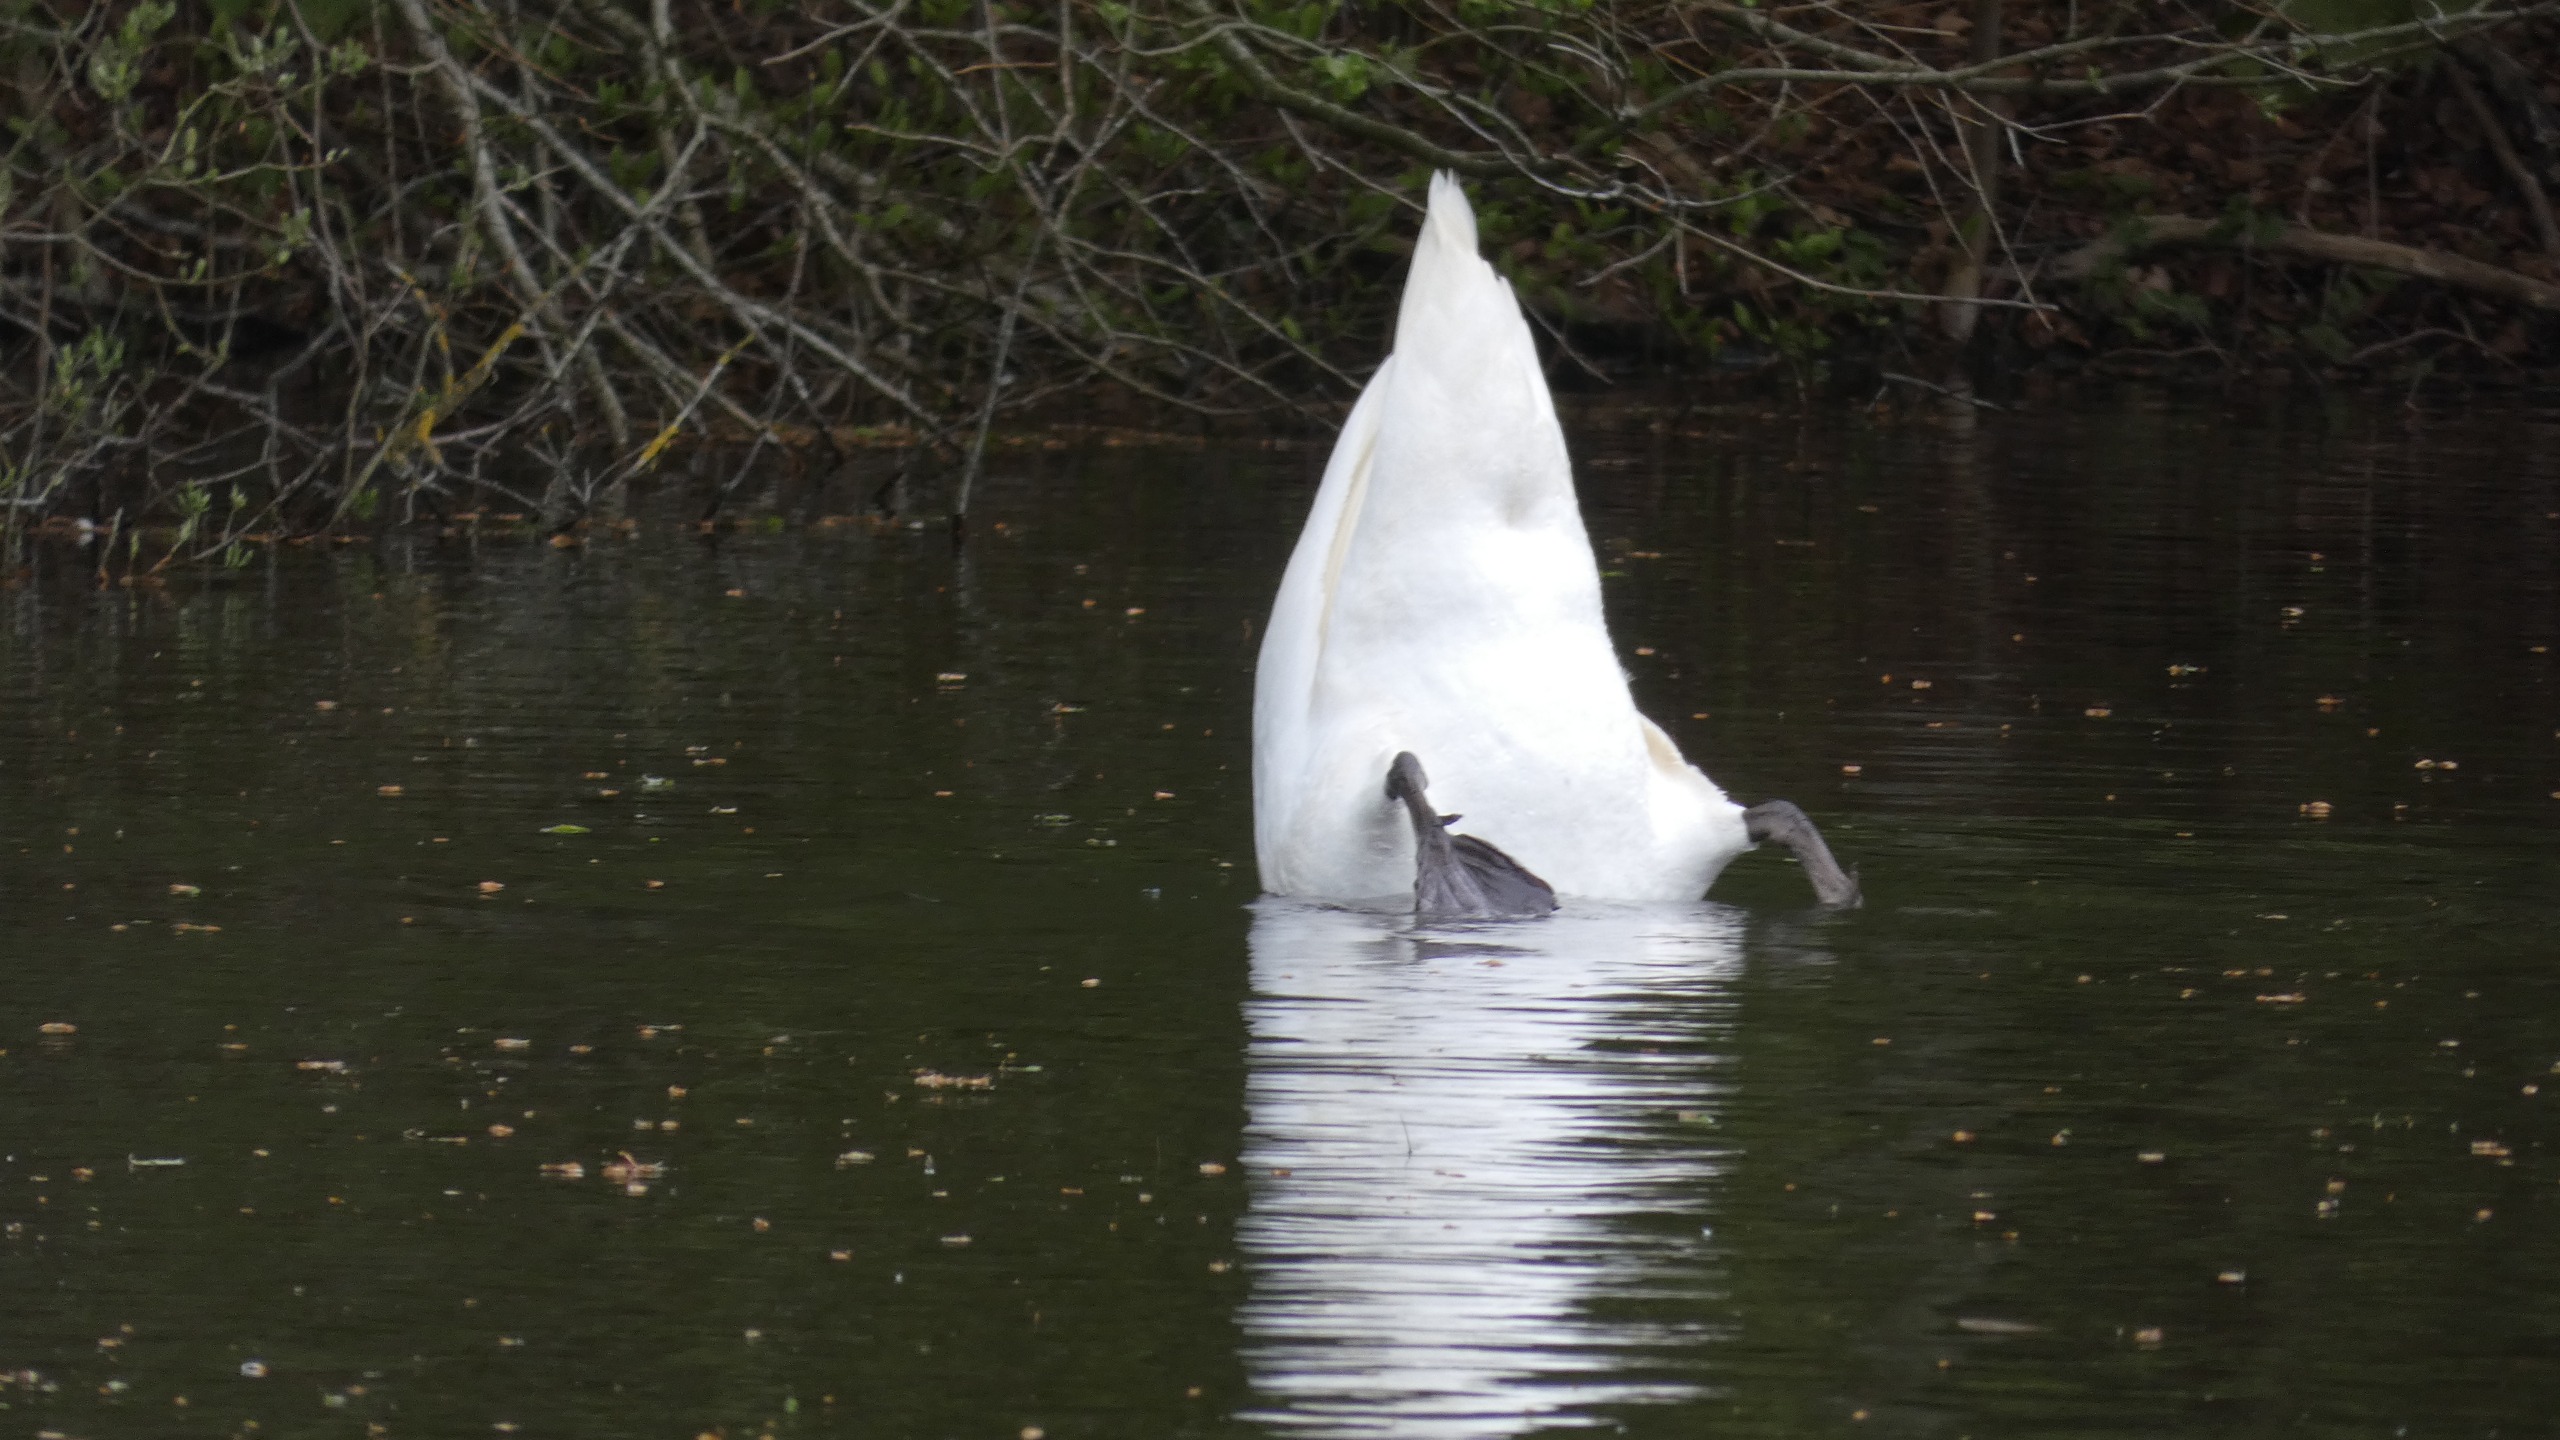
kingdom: Animalia
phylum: Chordata
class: Aves
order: Anseriformes
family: Anatidae
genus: Cygnus
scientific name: Cygnus olor
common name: Knopsvane
